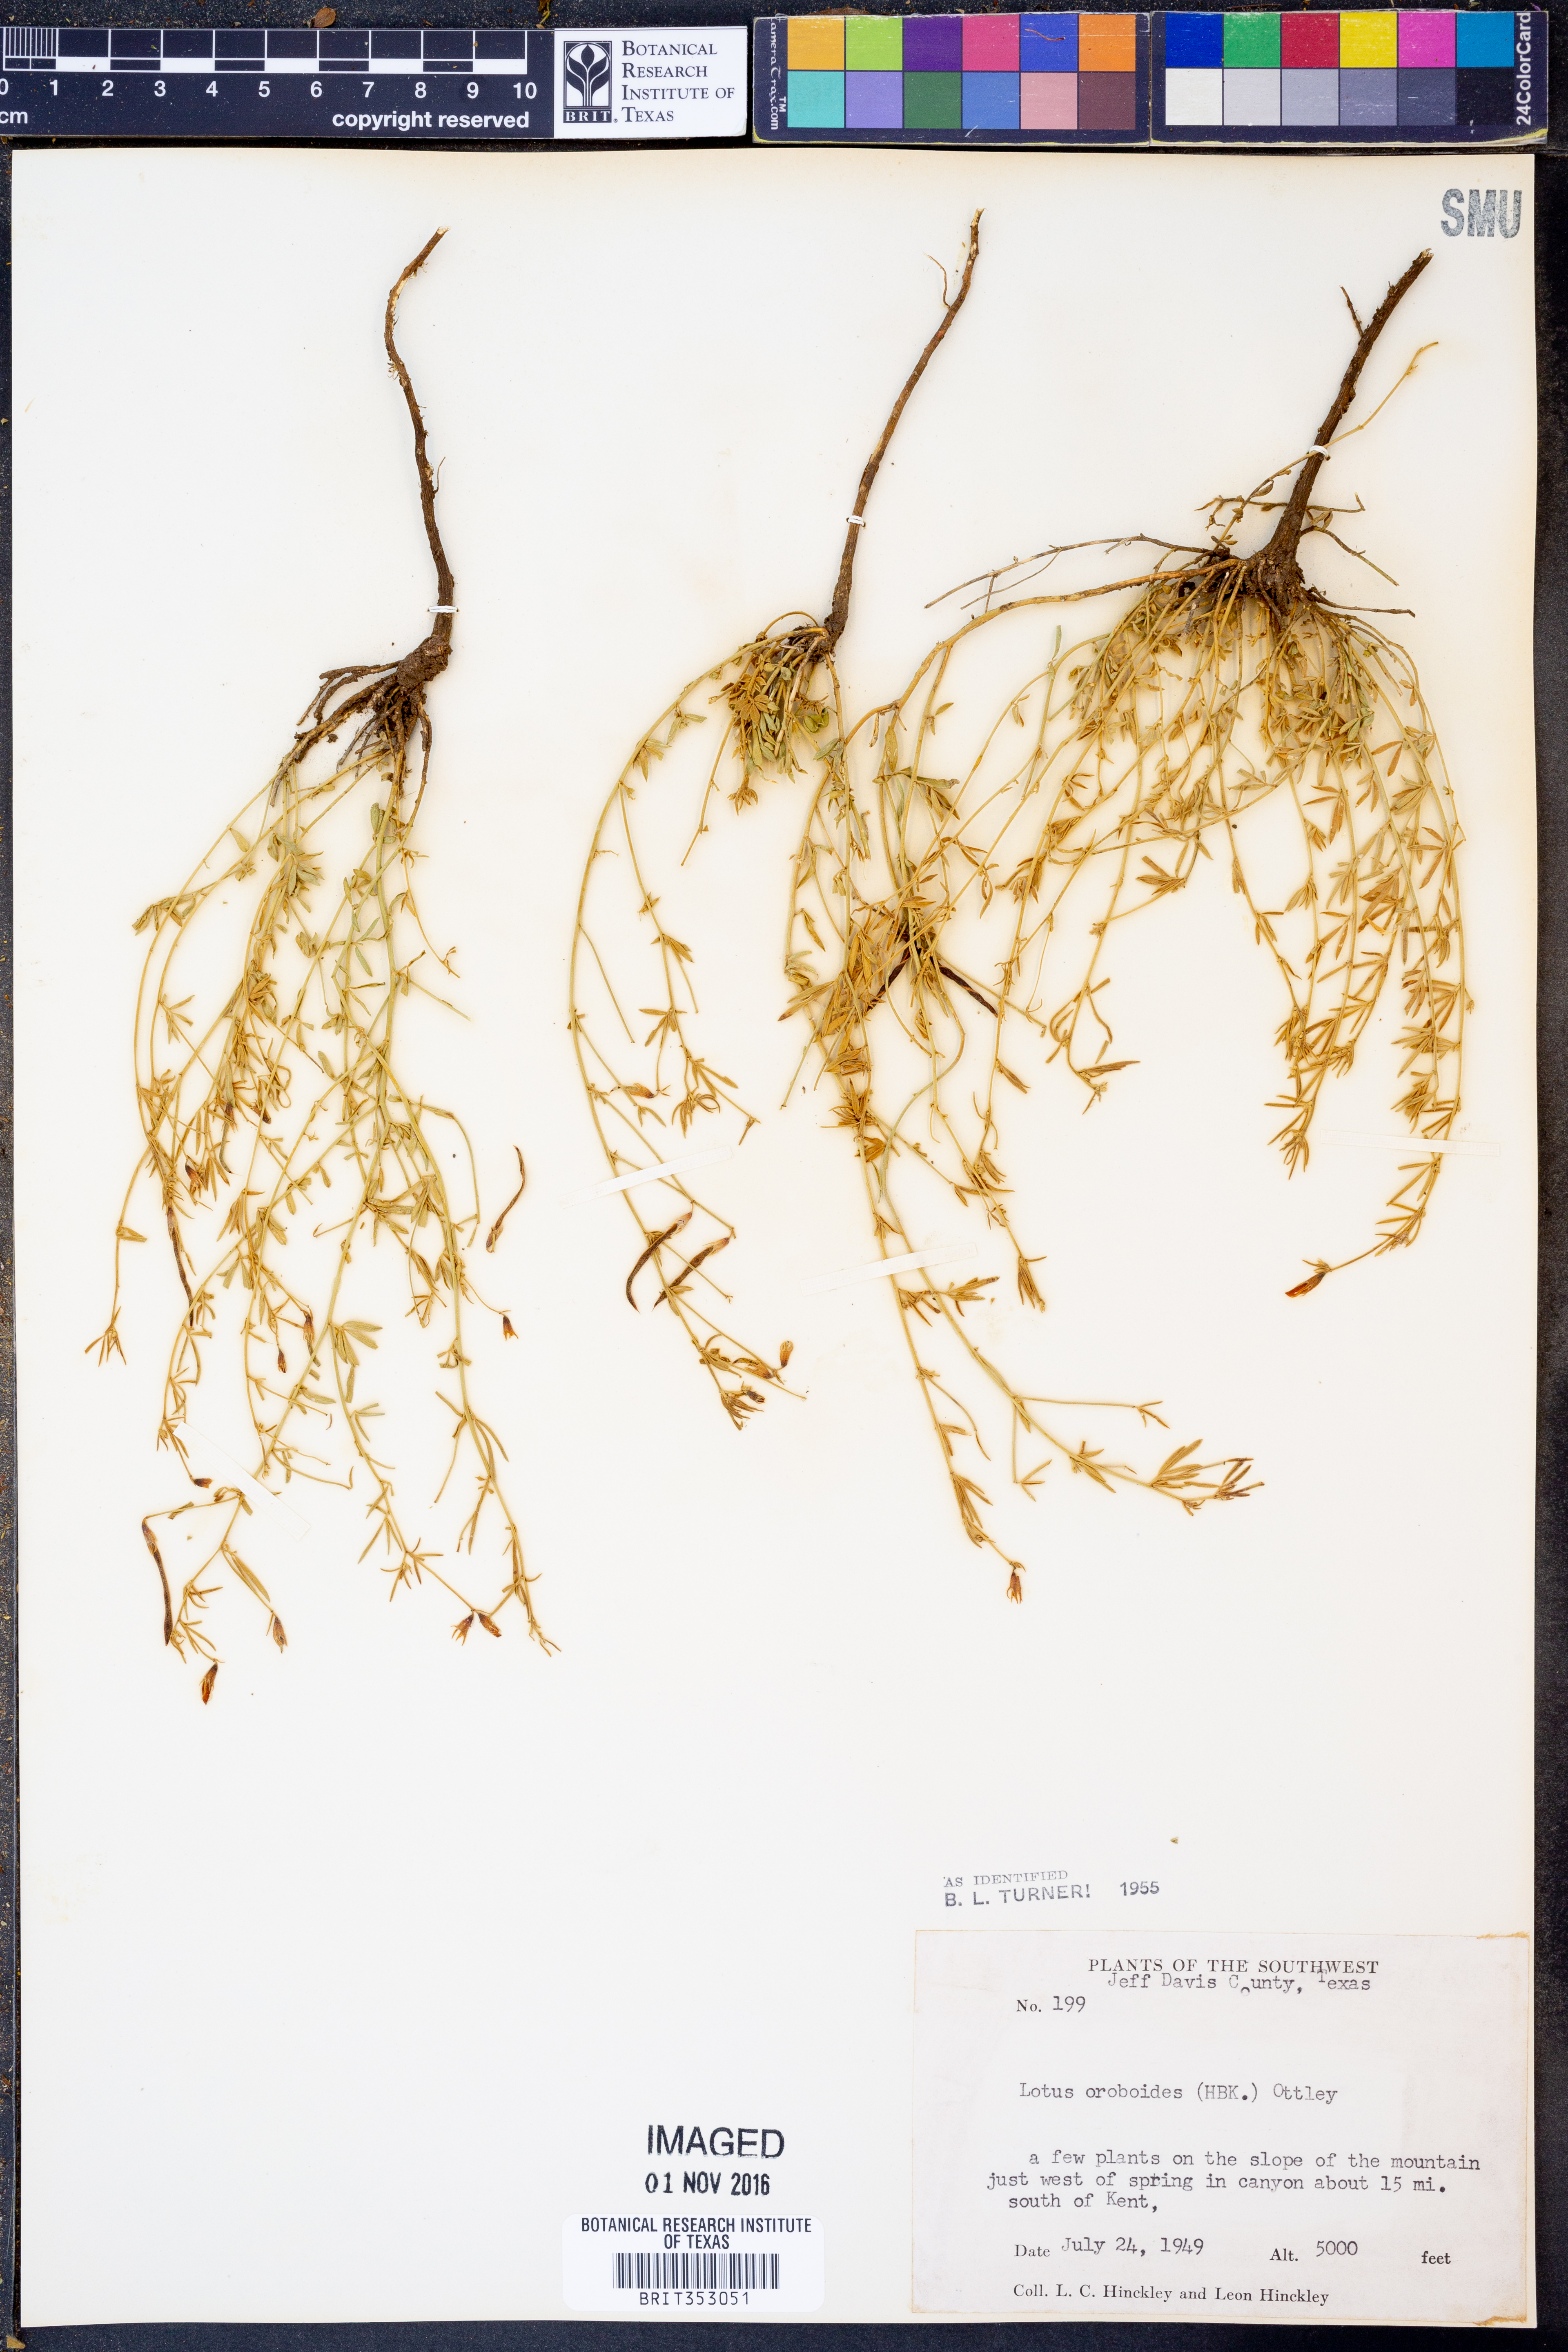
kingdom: Plantae
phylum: Tracheophyta
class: Magnoliopsida
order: Fabales
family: Fabaceae
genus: Acmispon
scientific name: Acmispon oroboides
